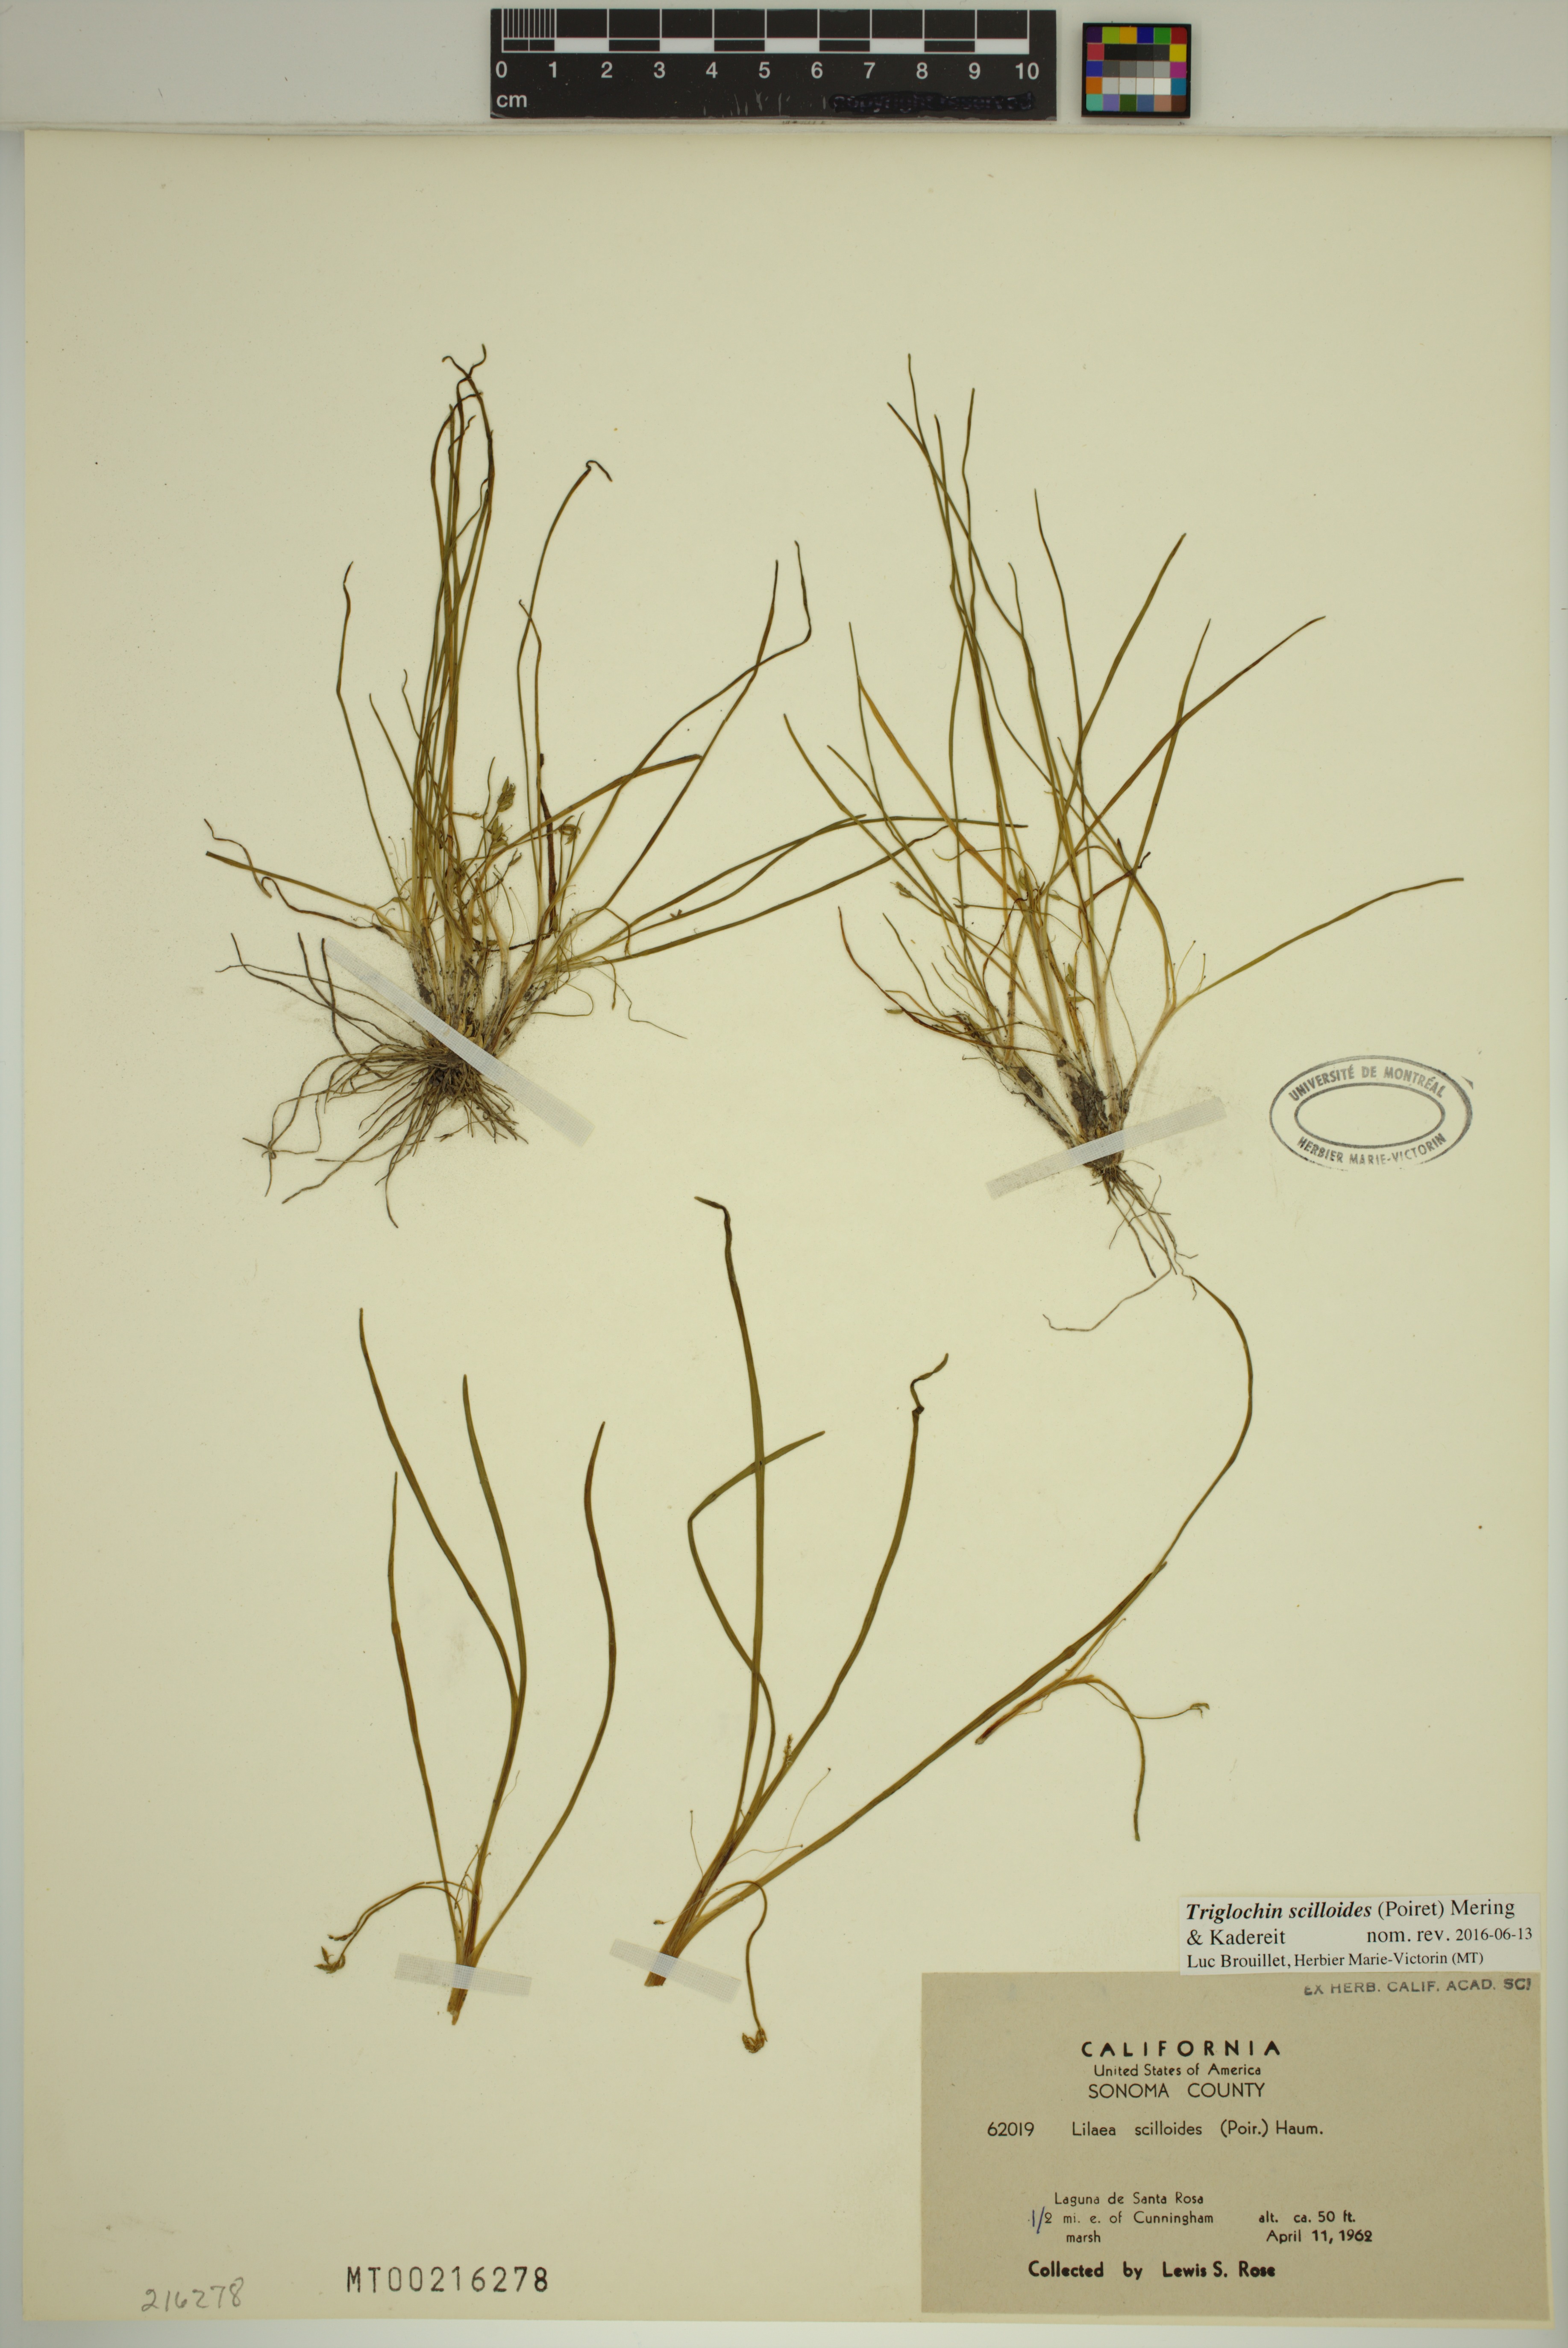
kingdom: Plantae
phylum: Tracheophyta
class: Liliopsida
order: Alismatales
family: Juncaginaceae
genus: Triglochin
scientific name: Triglochin scilloides
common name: Awl-leaved lilaea
